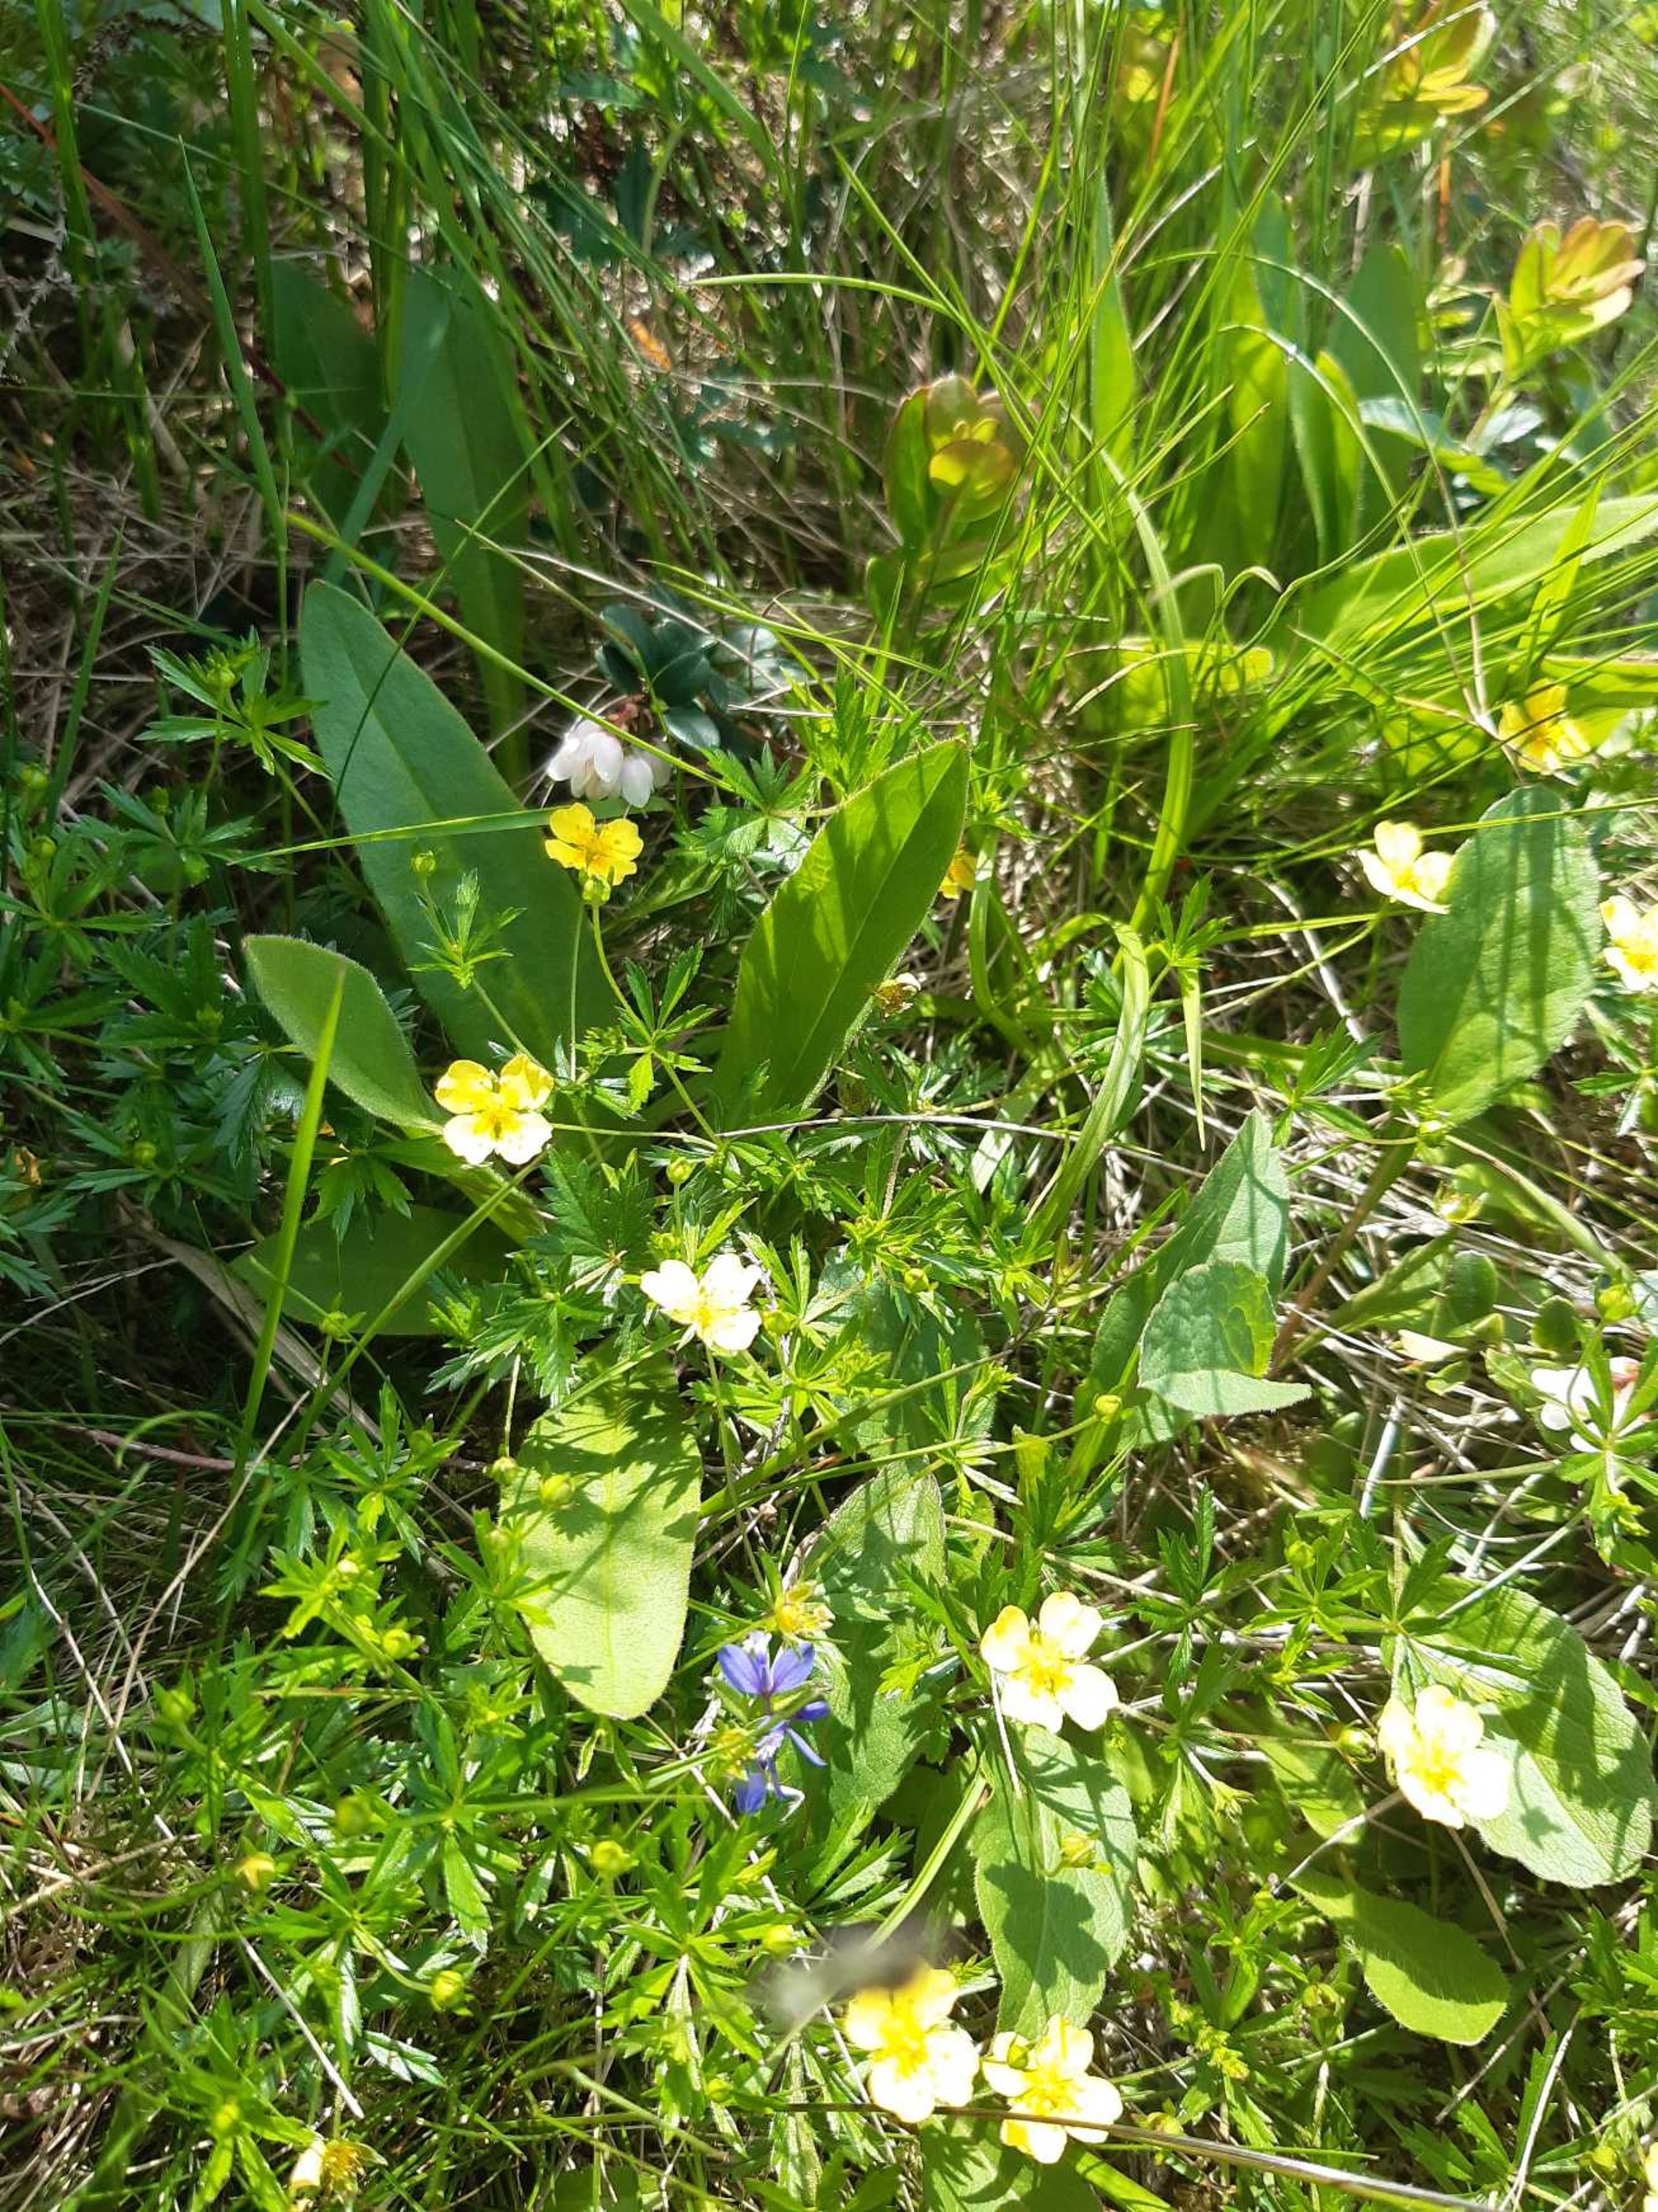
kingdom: Plantae
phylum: Tracheophyta
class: Magnoliopsida
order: Rosales
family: Rosaceae
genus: Potentilla
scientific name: Potentilla erecta
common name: Tormentil
